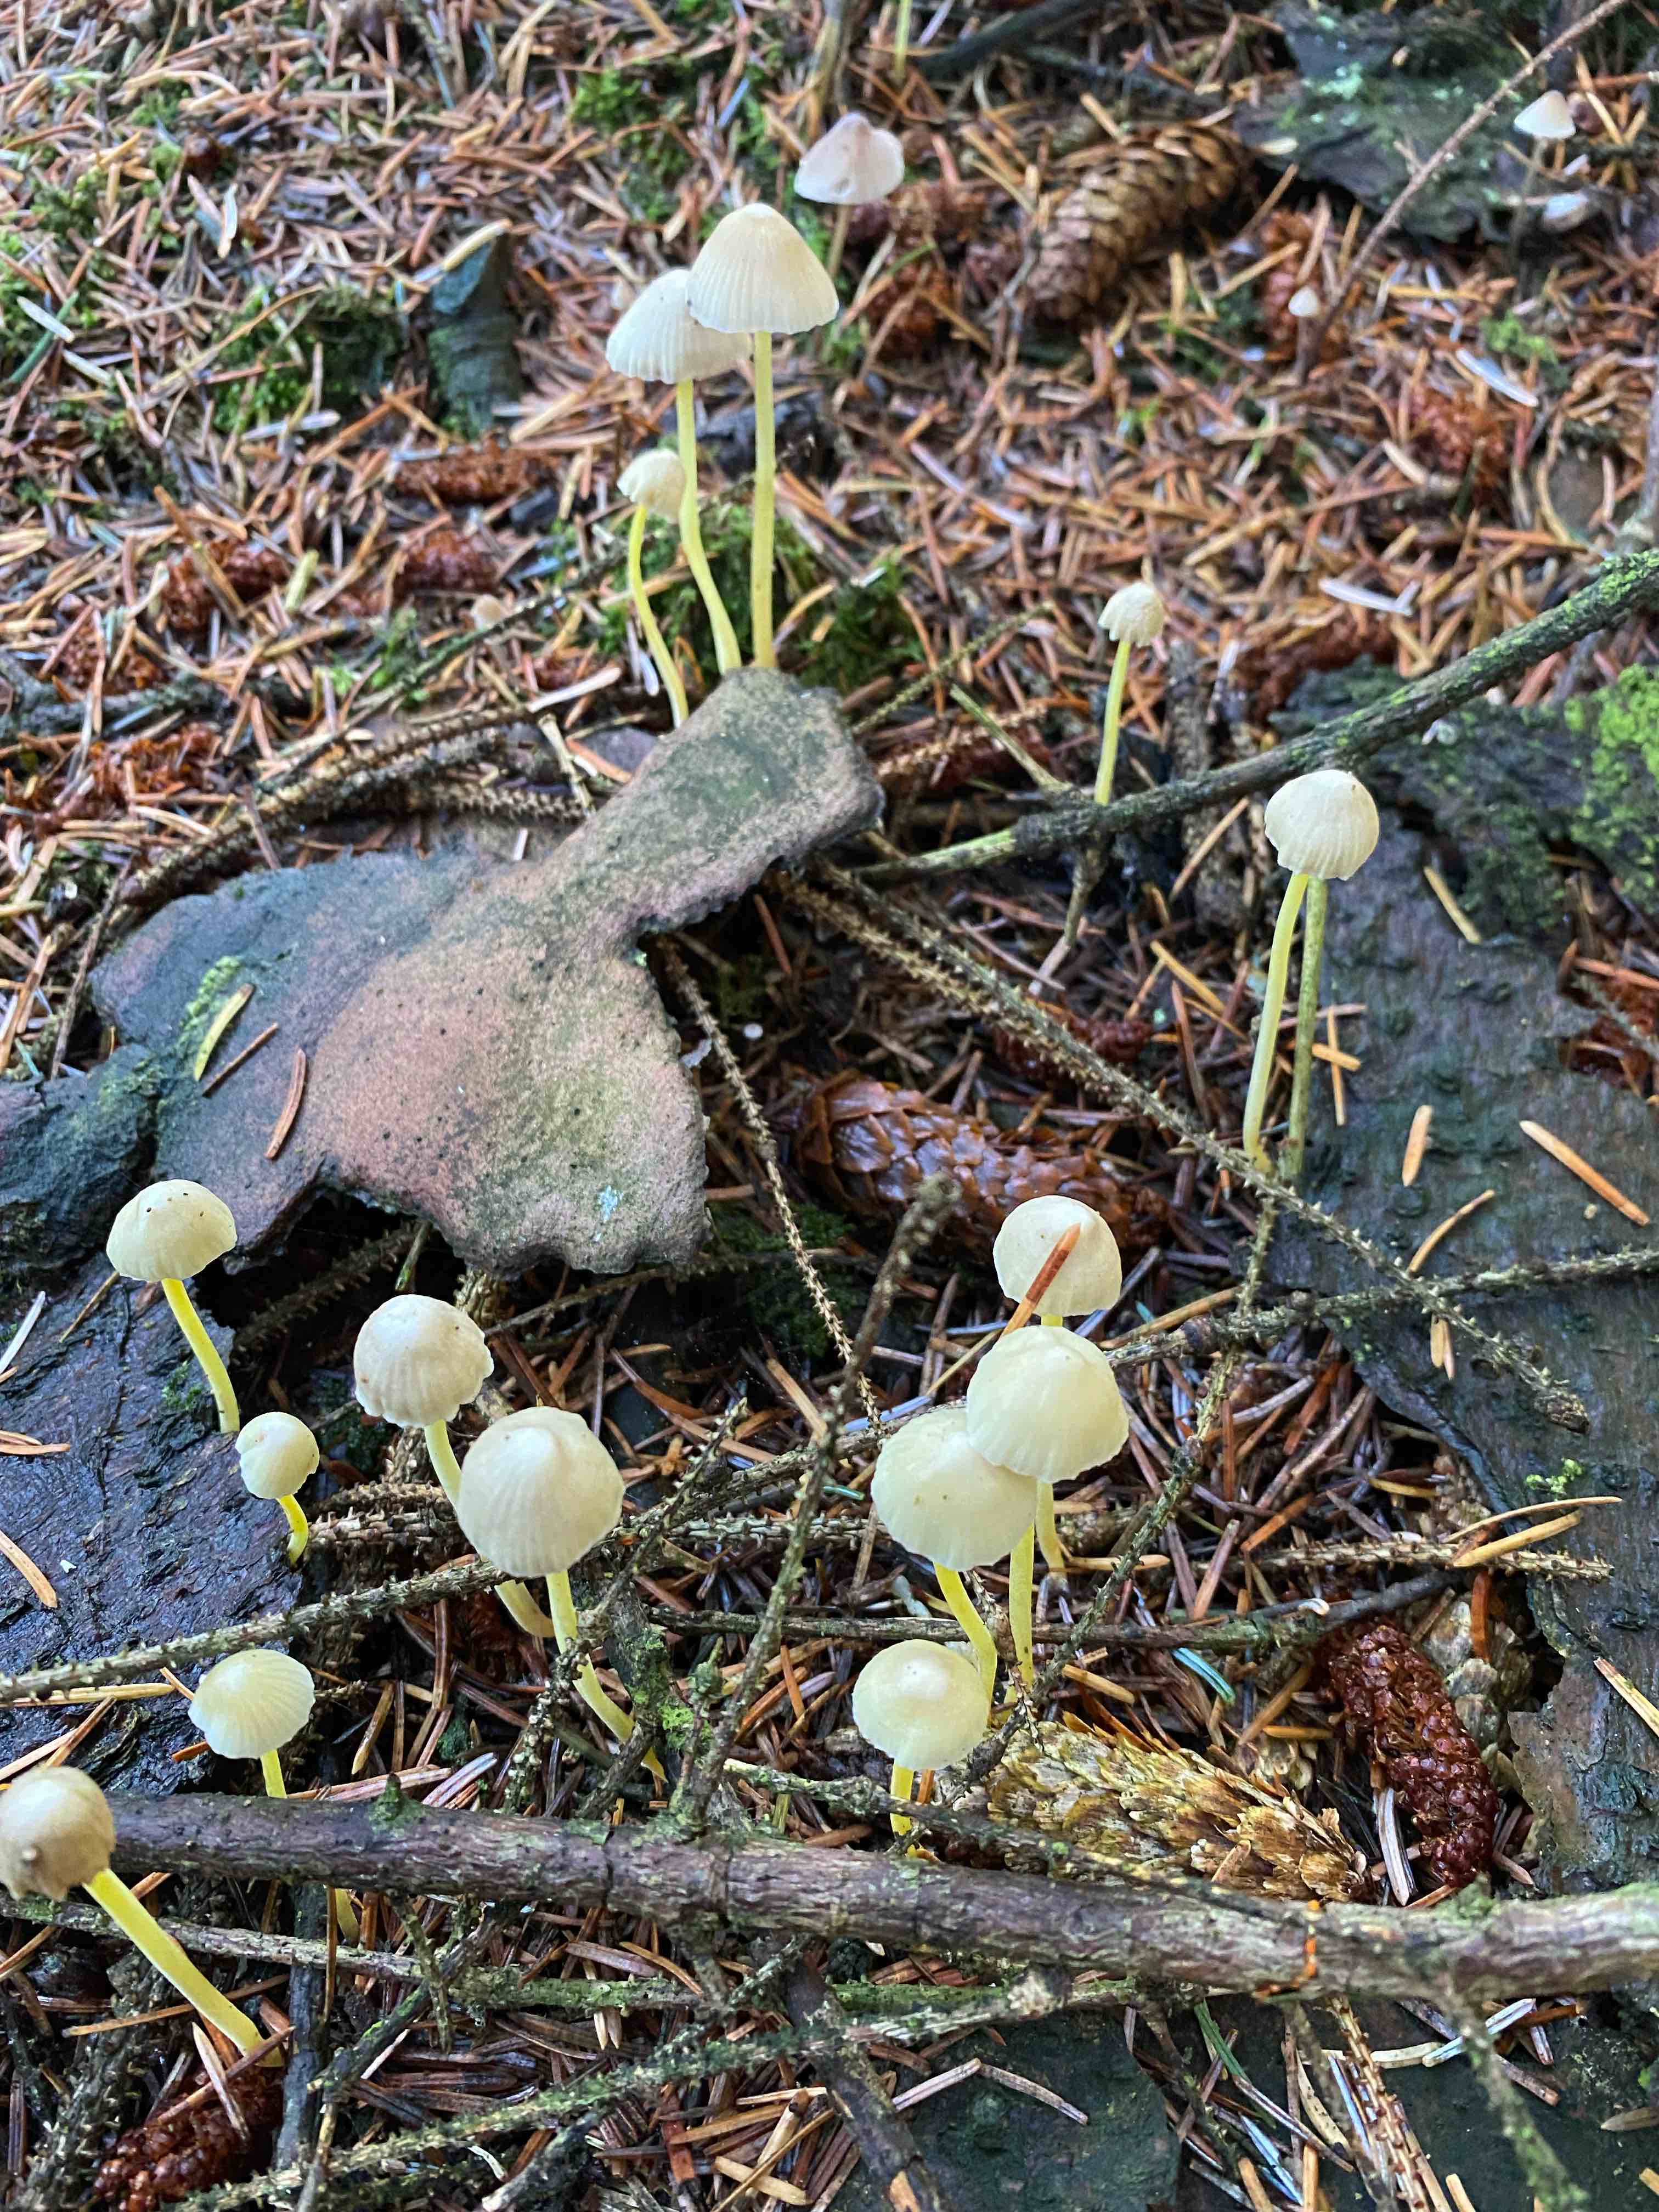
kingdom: Fungi
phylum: Basidiomycota
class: Agaricomycetes
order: Agaricales
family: Mycenaceae
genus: Mycena
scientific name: Mycena epipterygia
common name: gulstokket huesvamp
